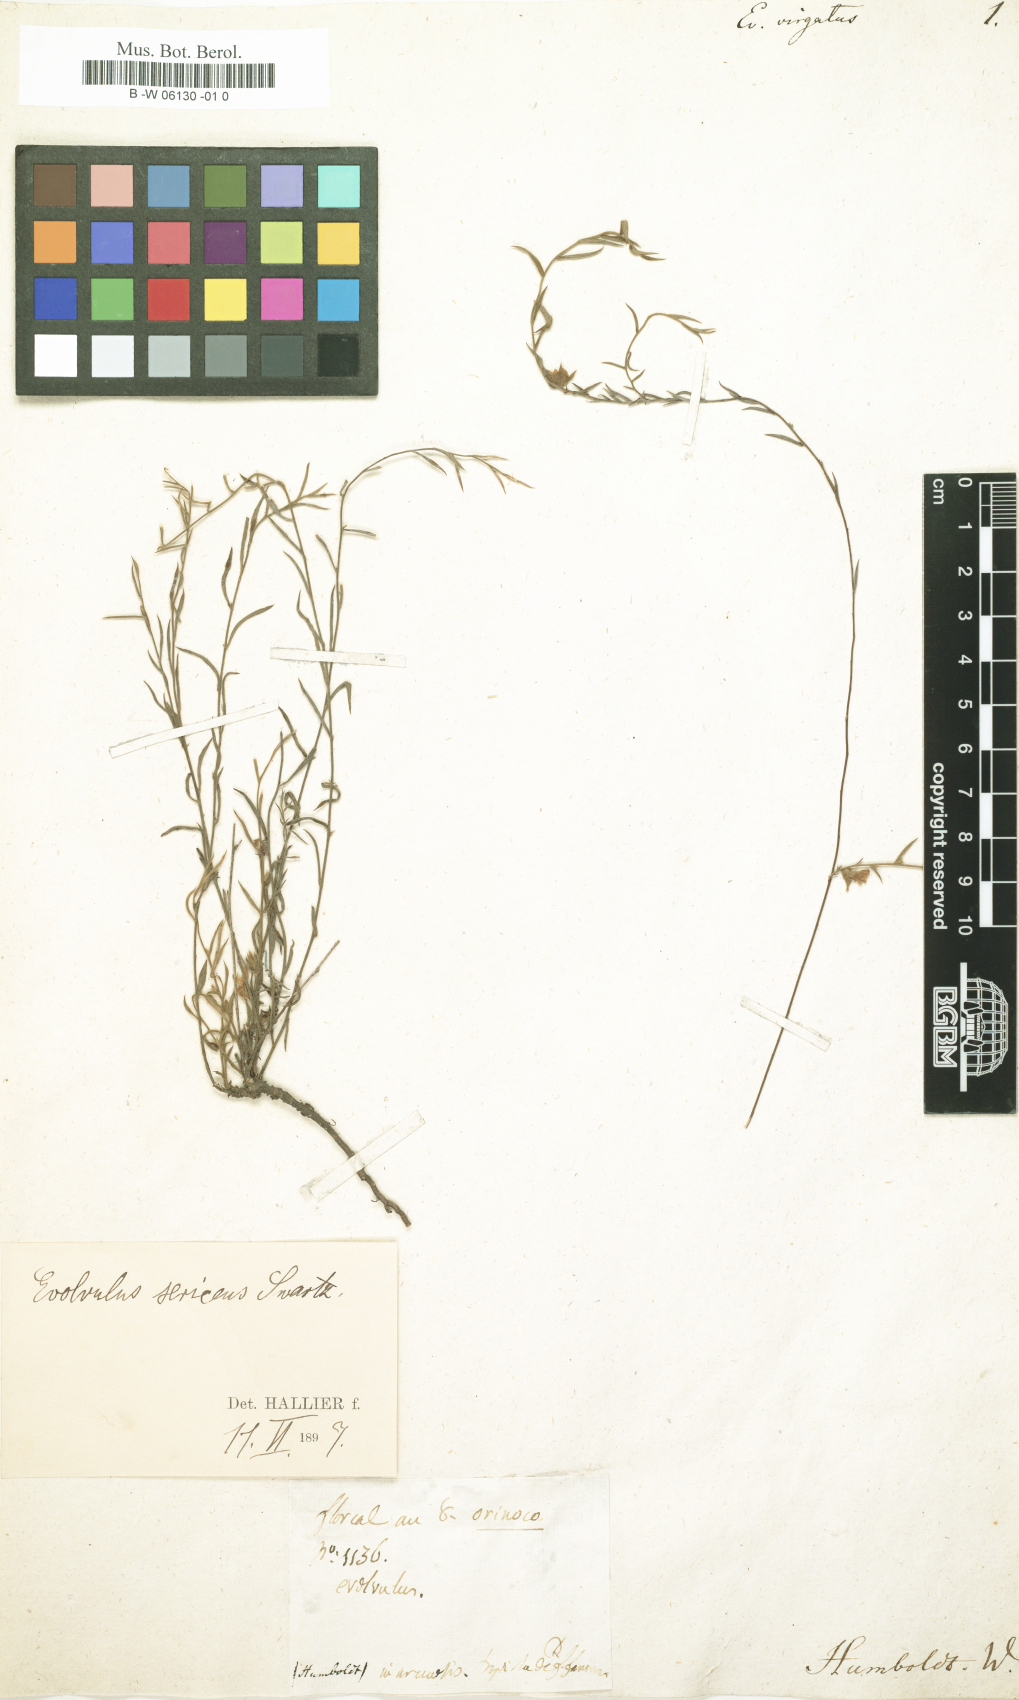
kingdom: Plantae
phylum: Tracheophyta
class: Magnoliopsida
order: Solanales
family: Convolvulaceae
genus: Evolvulus
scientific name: Evolvulus sericeus
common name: Blue dots
